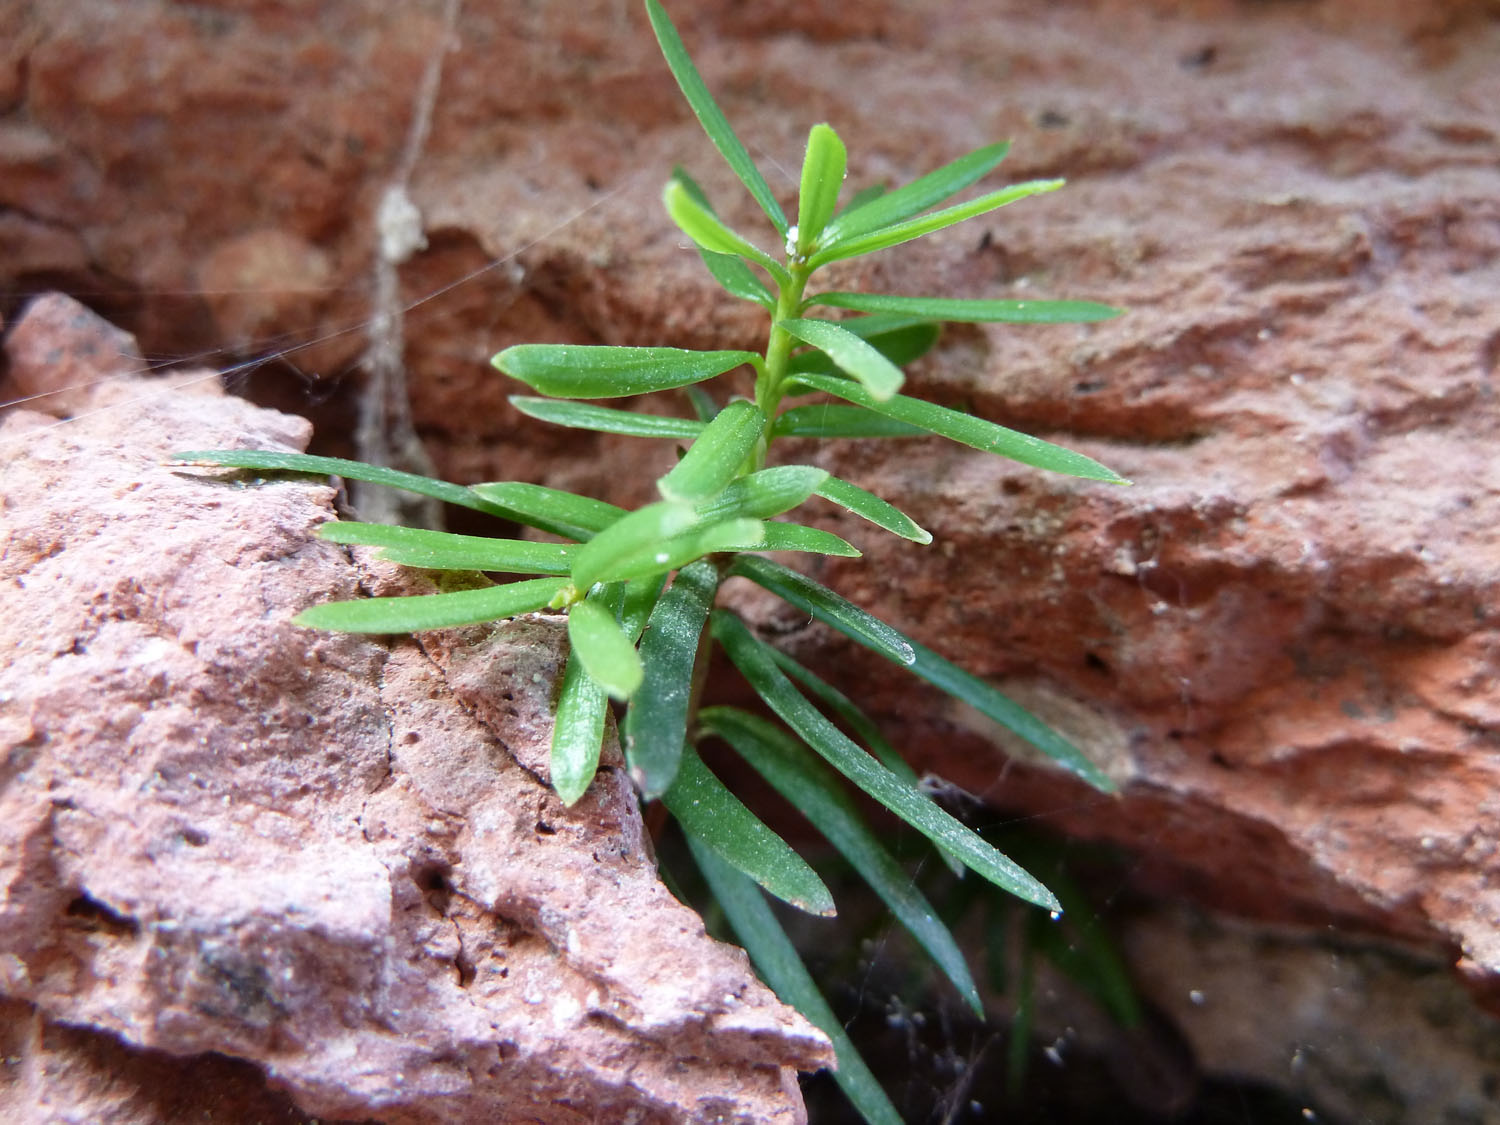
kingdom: Plantae
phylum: Tracheophyta
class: Pinopsida
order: Pinales
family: Taxaceae
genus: Taxus
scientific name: Taxus baccata
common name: Yew
